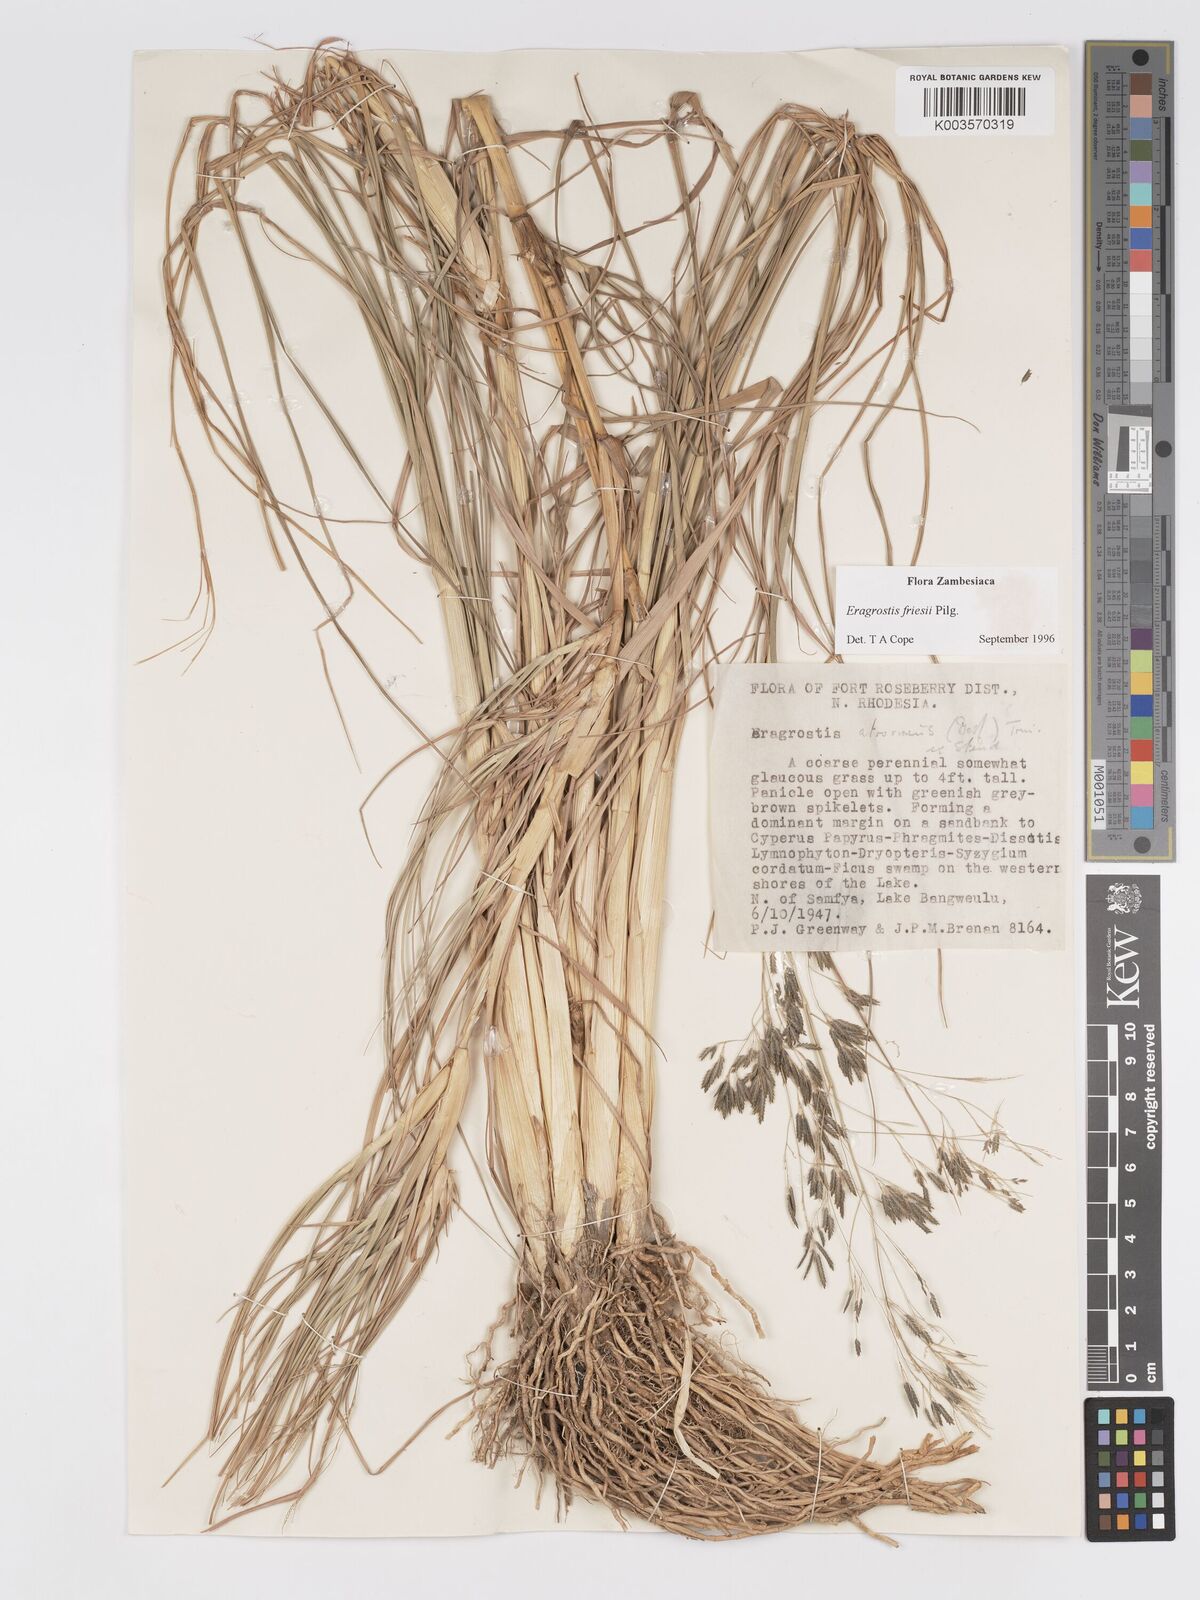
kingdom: Plantae
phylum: Tracheophyta
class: Liliopsida
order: Poales
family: Poaceae
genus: Eragrostis
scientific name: Eragrostis friesii
